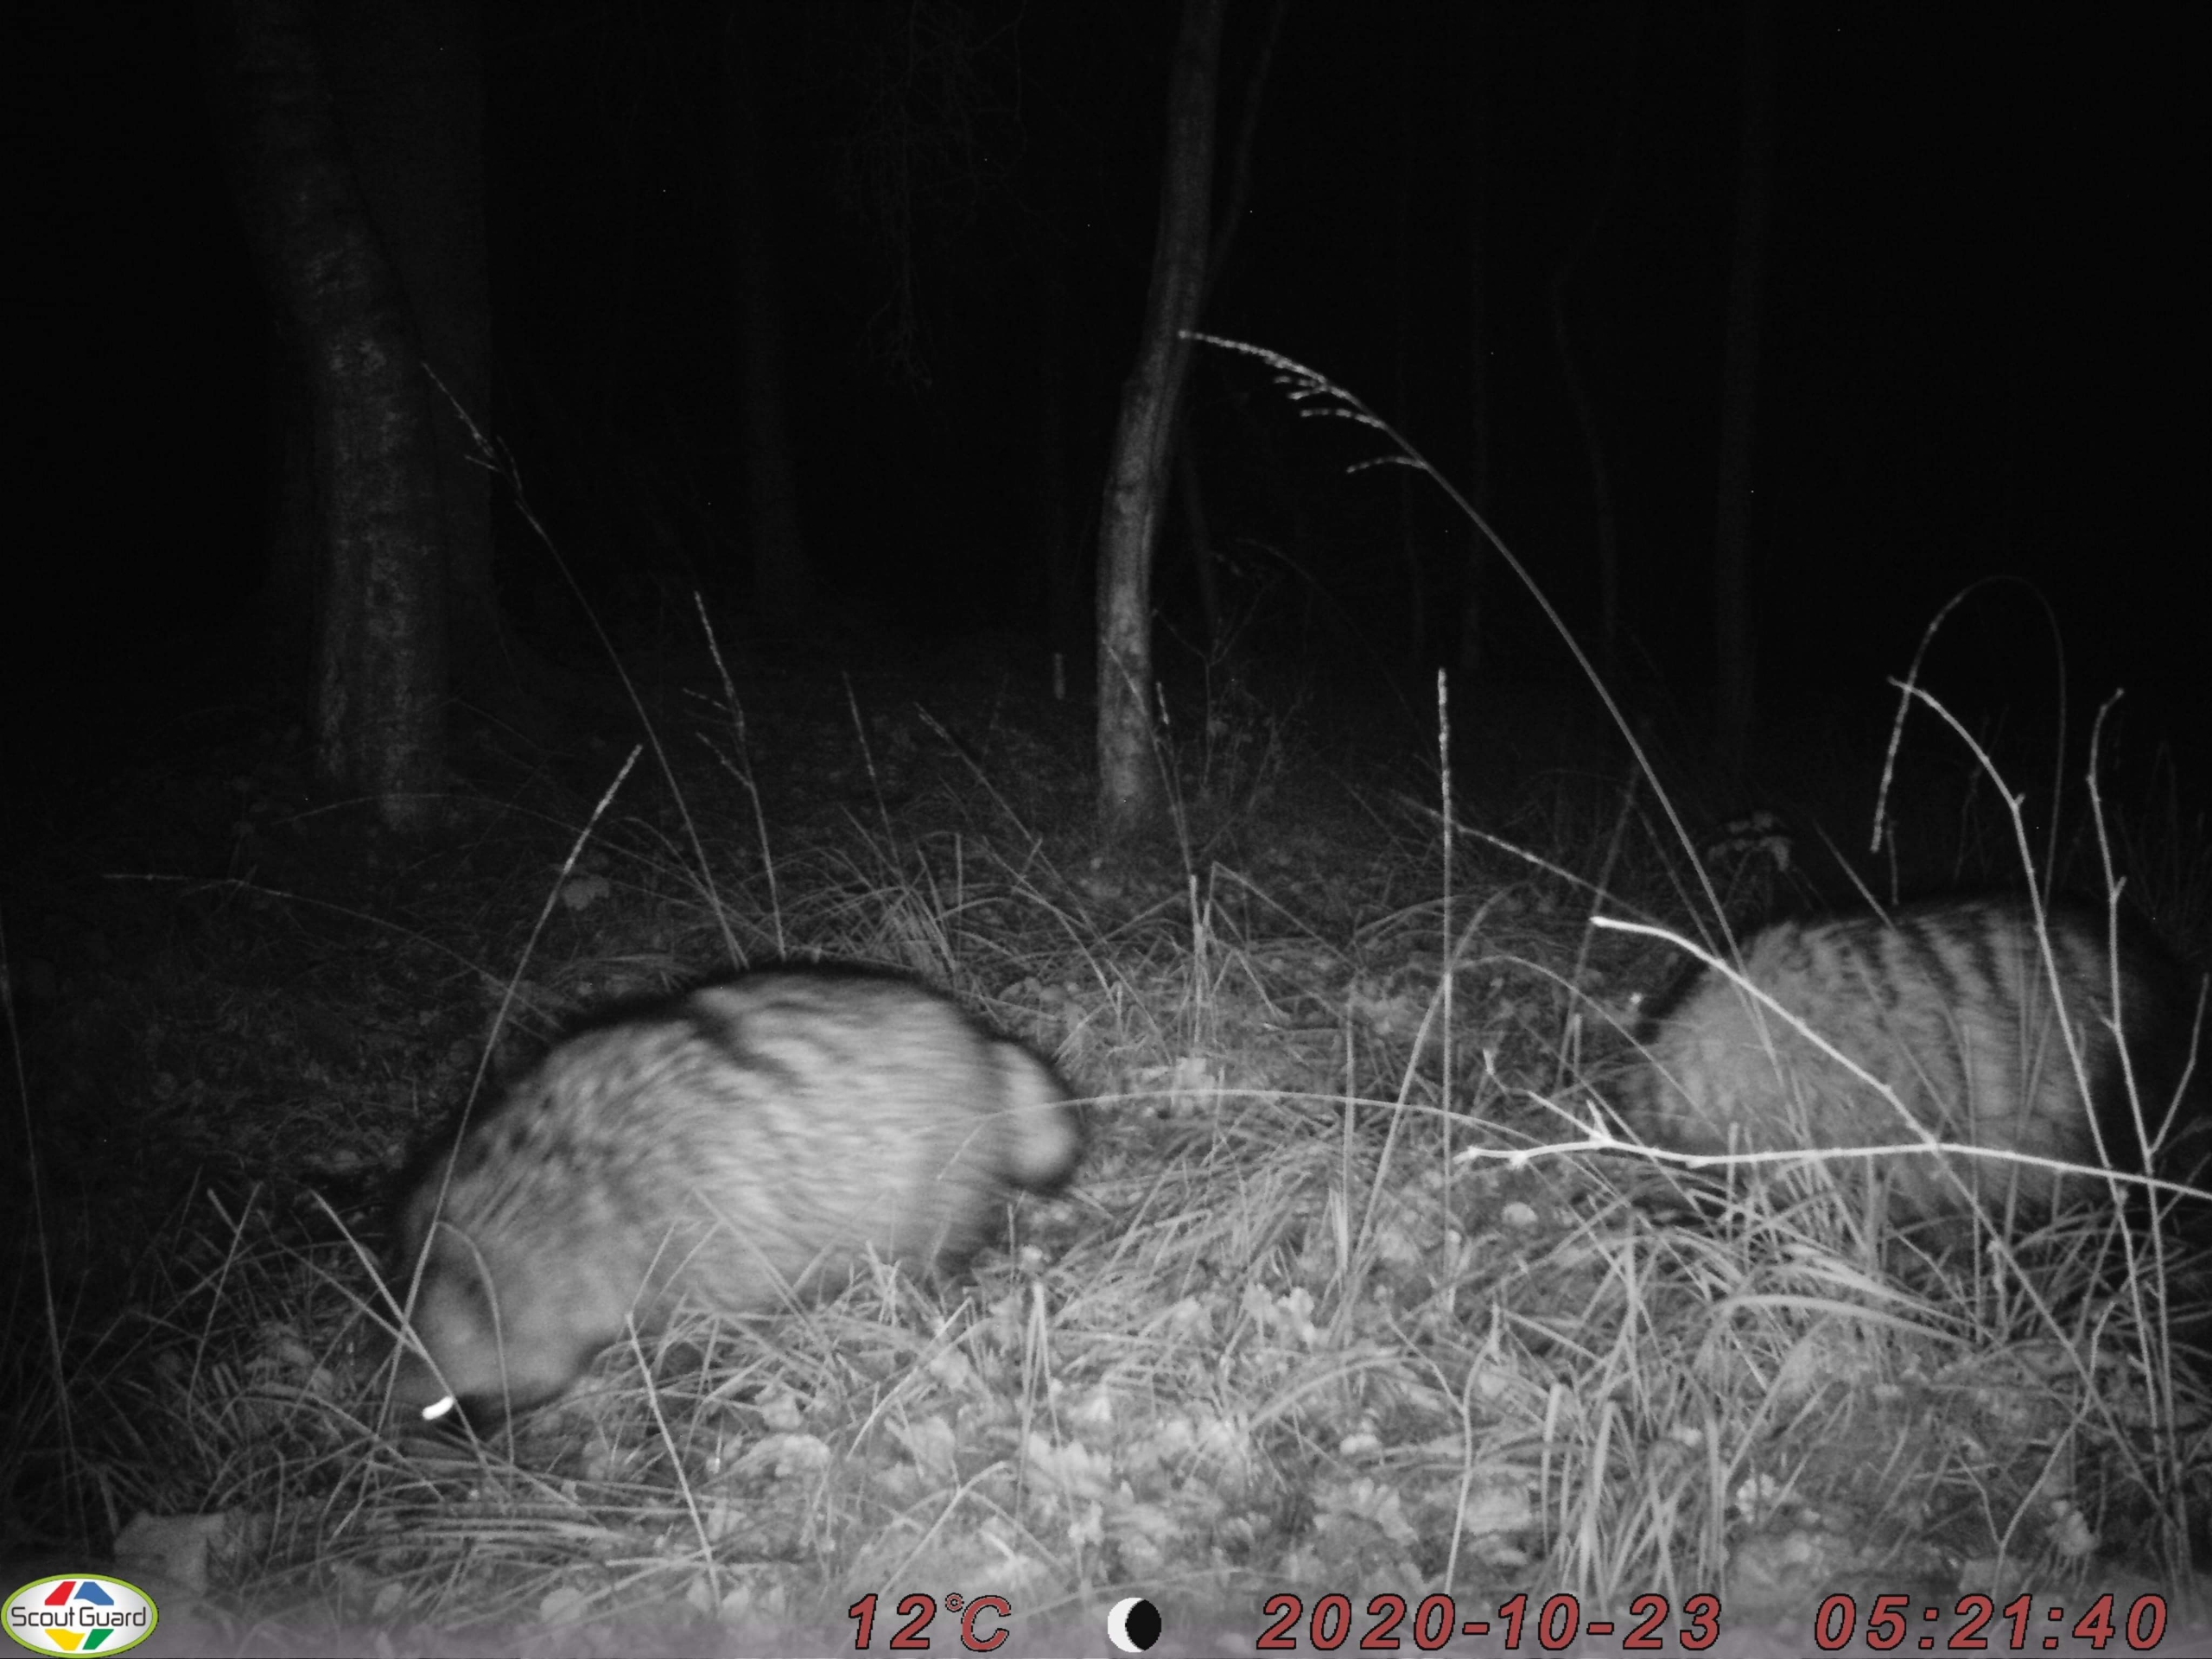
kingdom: Animalia
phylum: Chordata
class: Mammalia
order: Carnivora
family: Canidae
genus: Nyctereutes
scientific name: Nyctereutes procyonoides
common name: Mårhund
